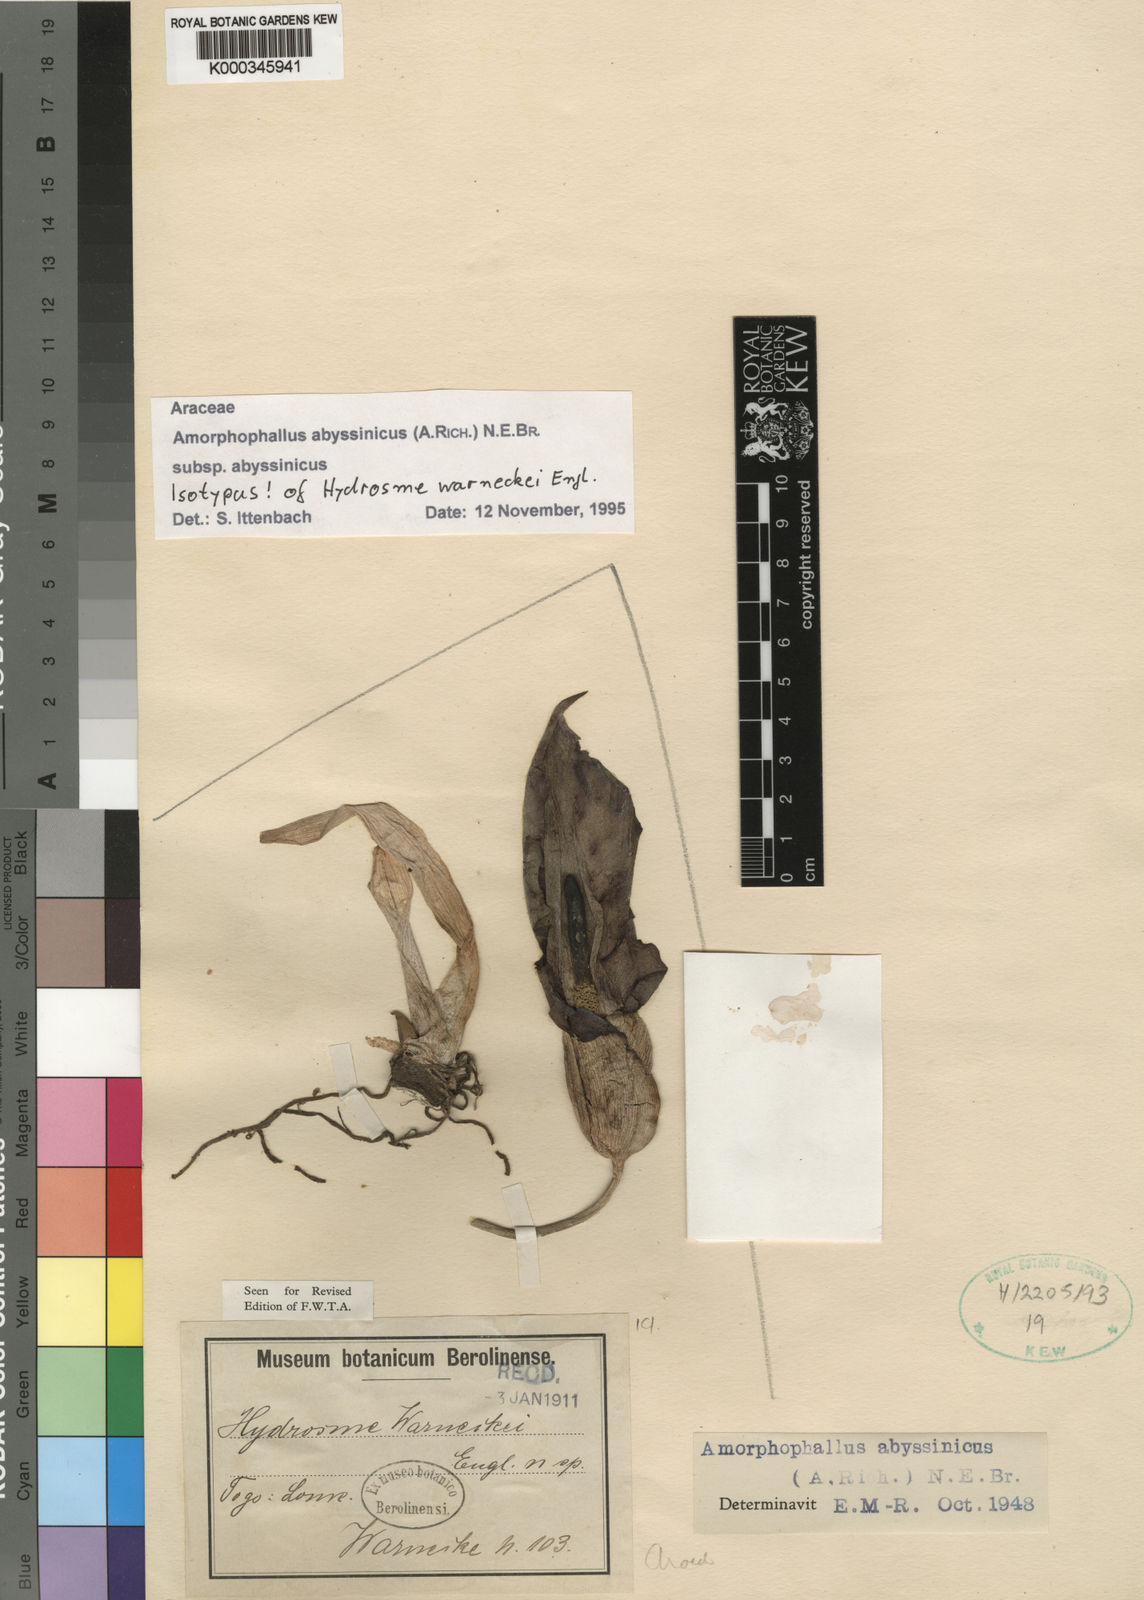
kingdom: Plantae
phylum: Tracheophyta
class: Liliopsida
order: Alismatales
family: Araceae
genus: Amorphophallus
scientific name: Amorphophallus abyssinicus
